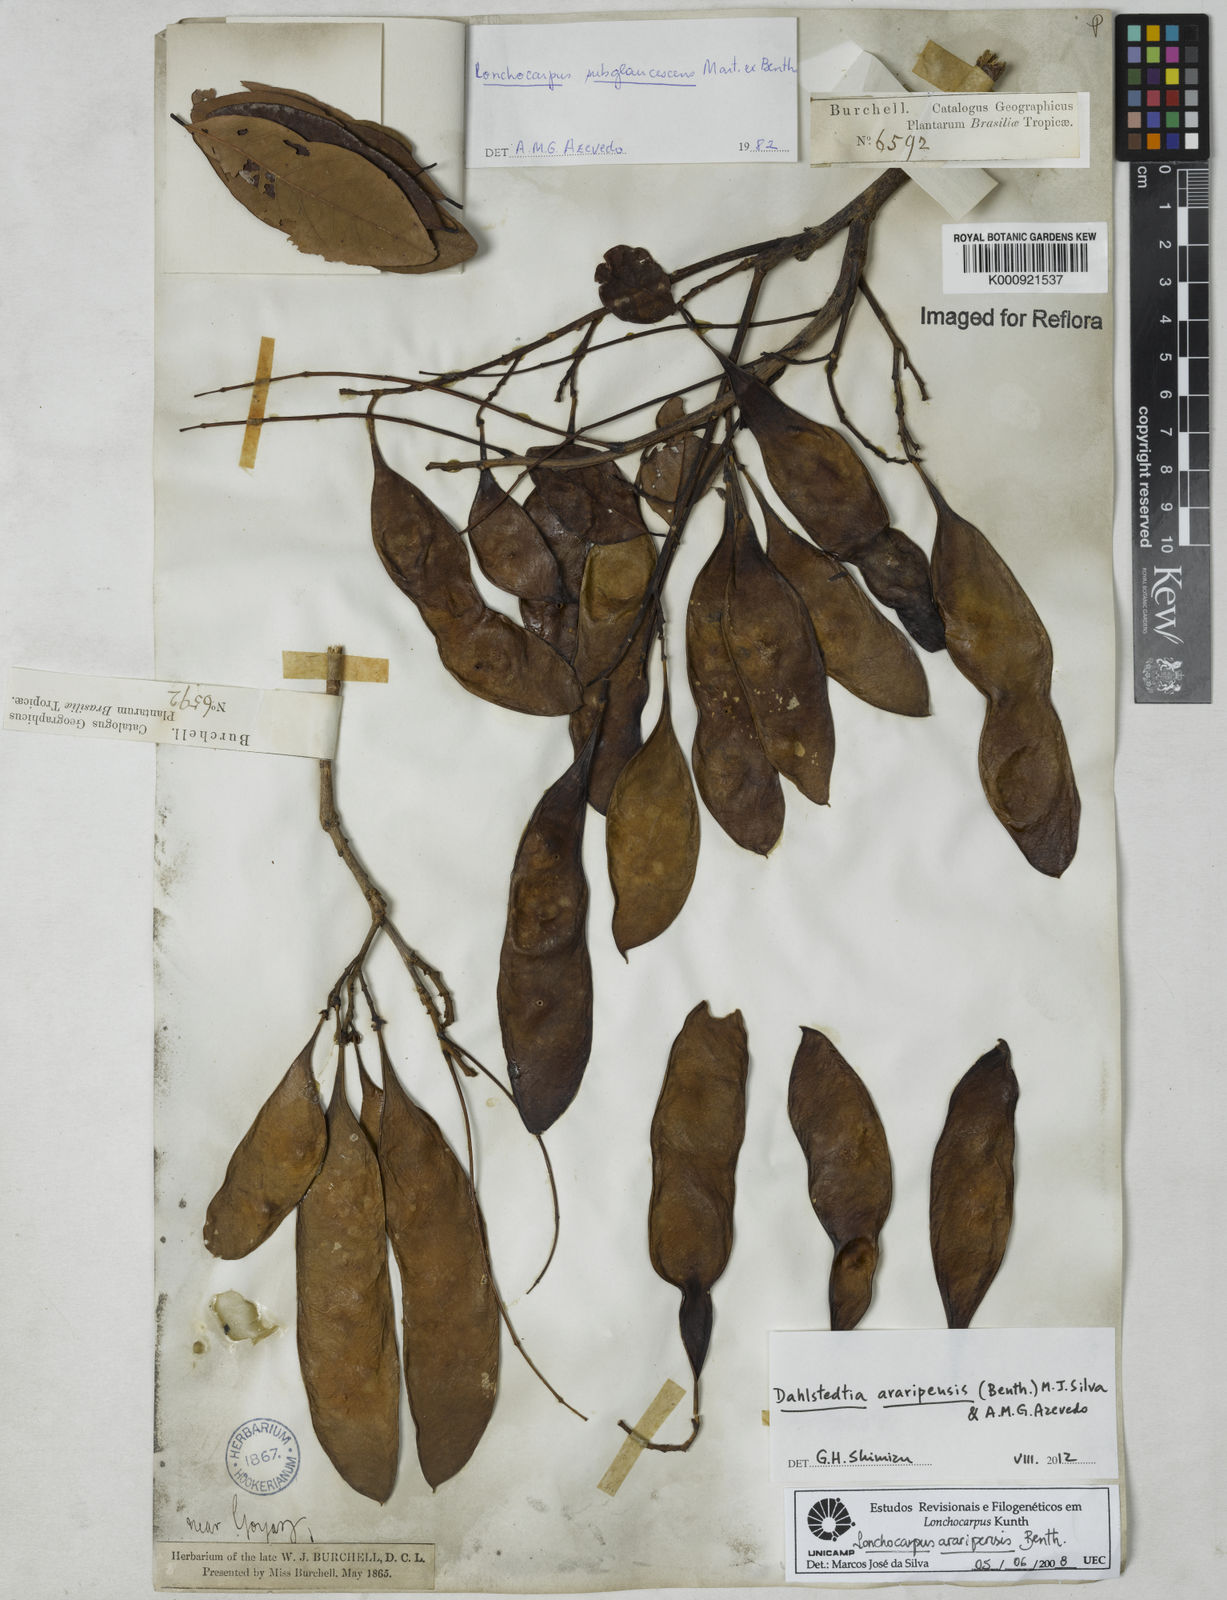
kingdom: Plantae
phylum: Tracheophyta
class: Magnoliopsida
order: Fabales
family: Fabaceae
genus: Dahlstedtia
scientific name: Dahlstedtia araripensis
